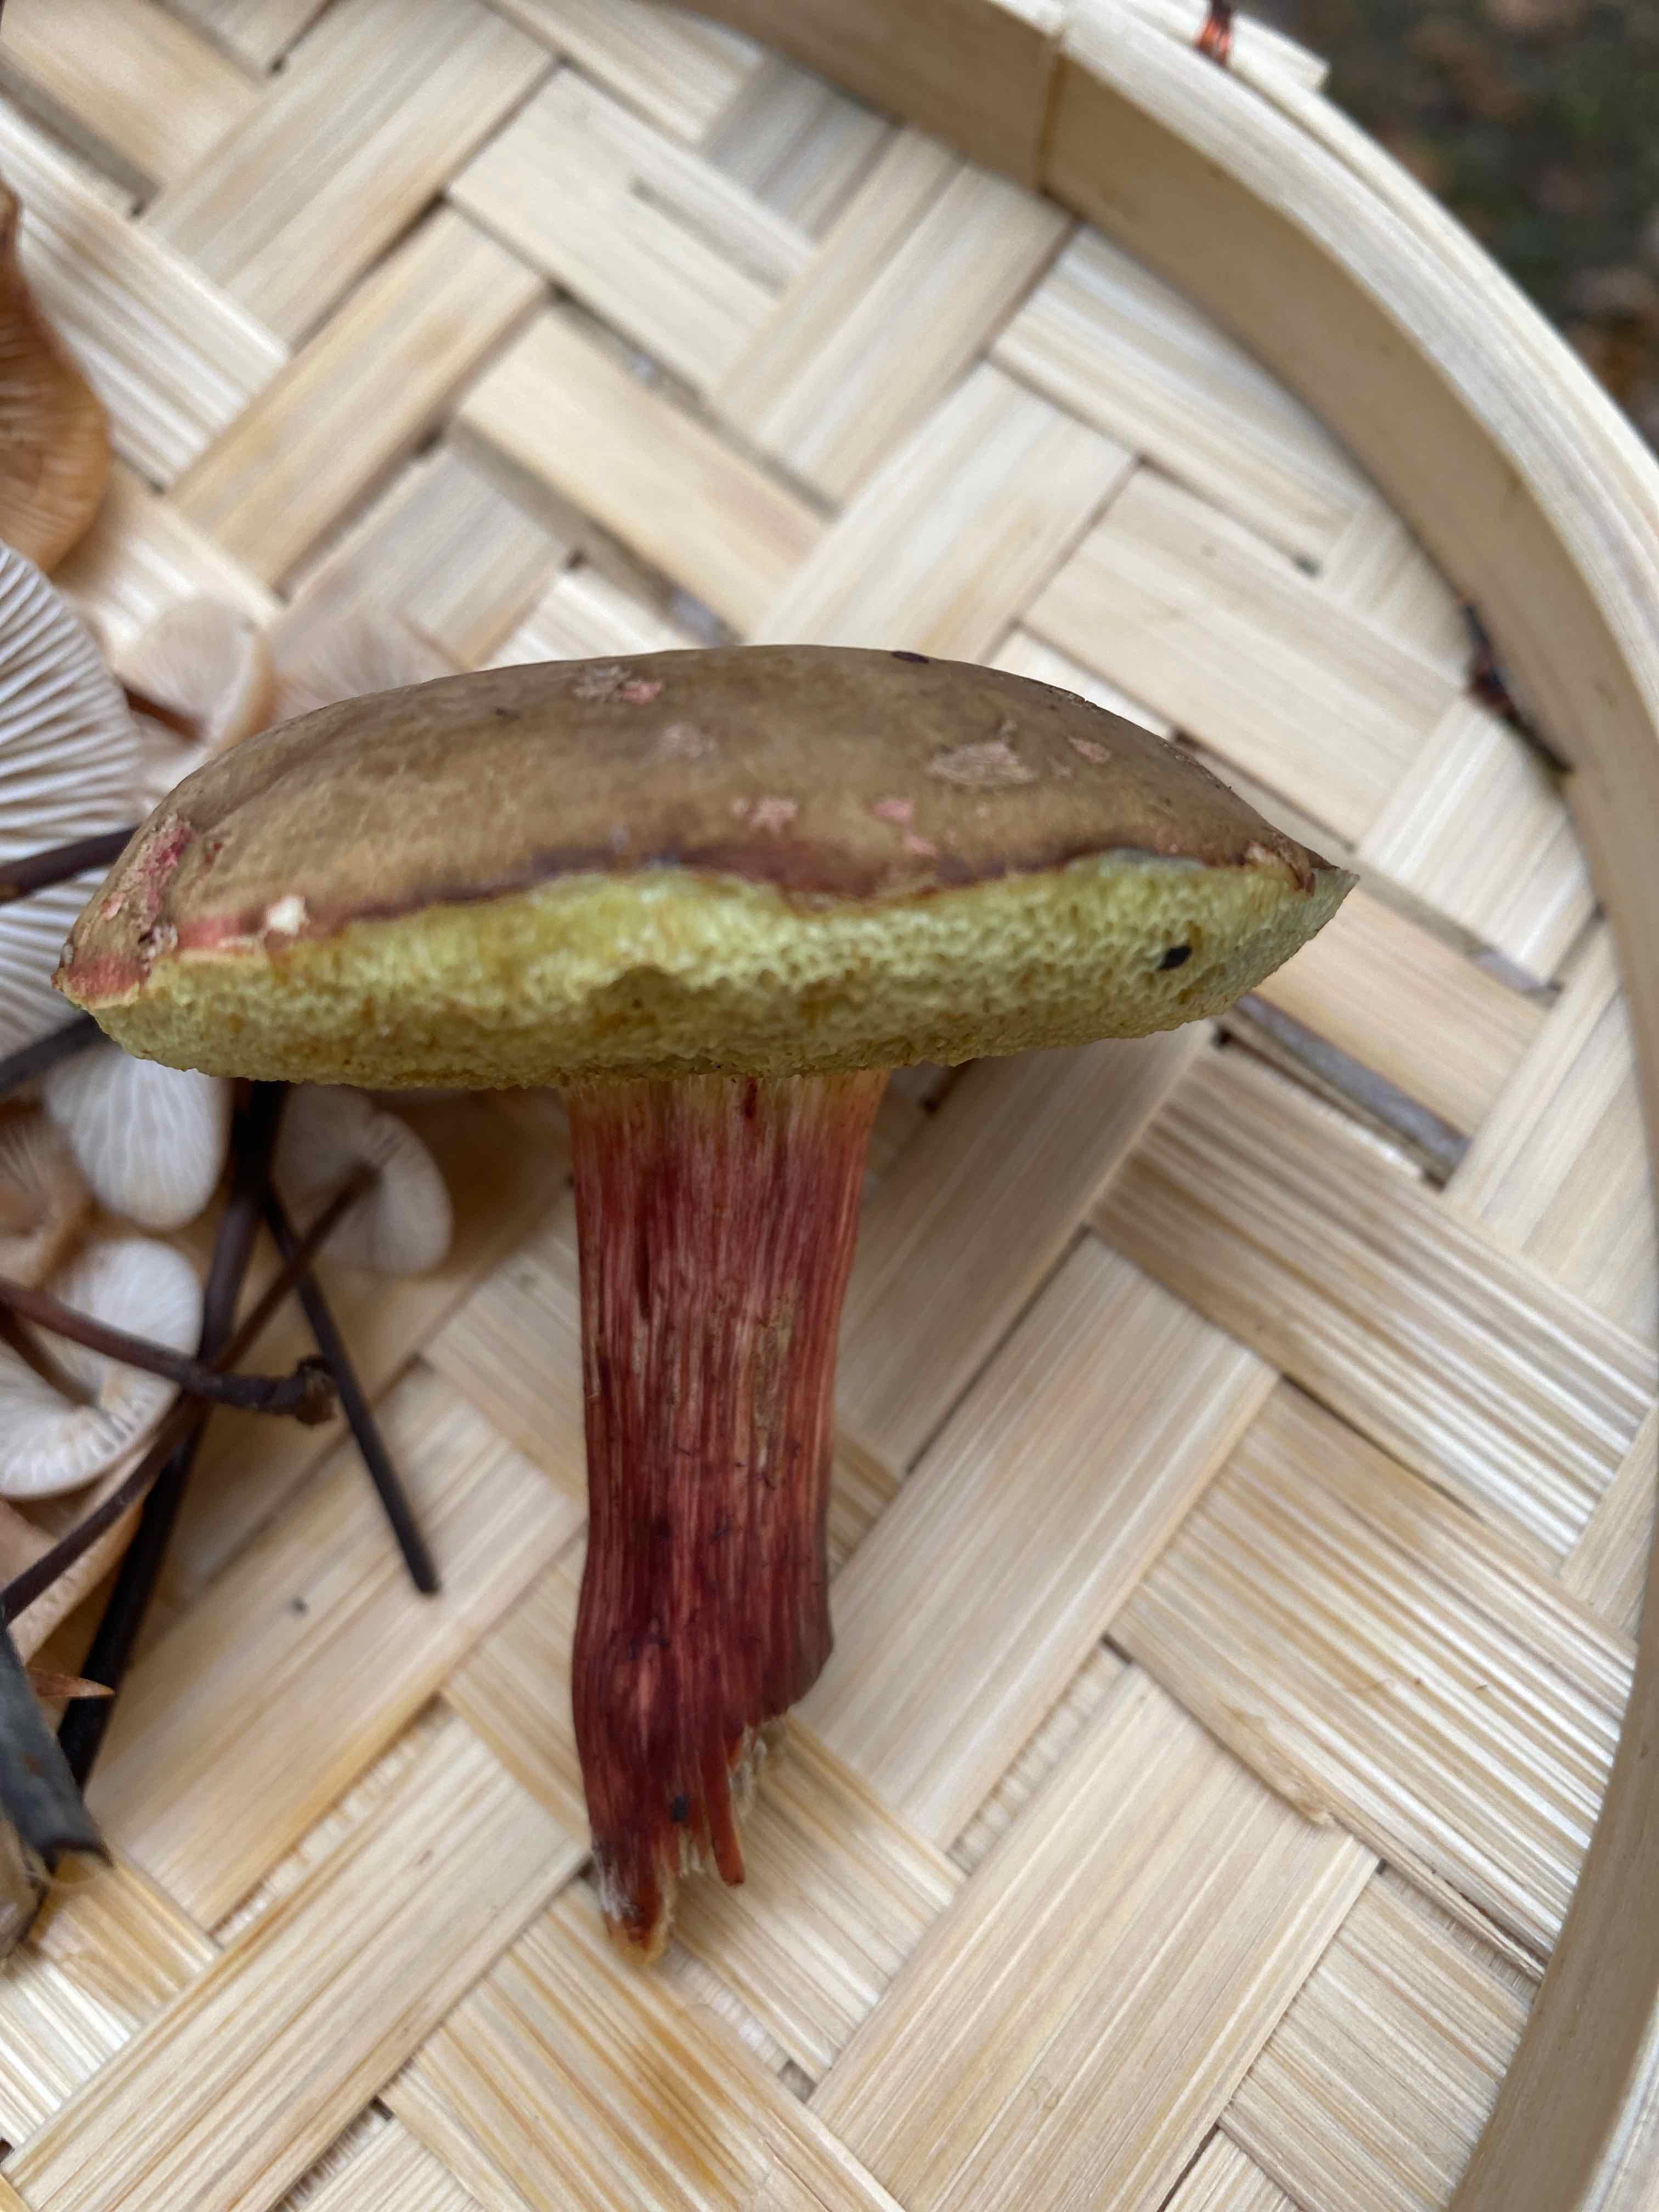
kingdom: Fungi
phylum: Basidiomycota
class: Agaricomycetes
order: Boletales
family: Boletaceae
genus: Xerocomellus
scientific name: Xerocomellus
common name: dværgrørhat
